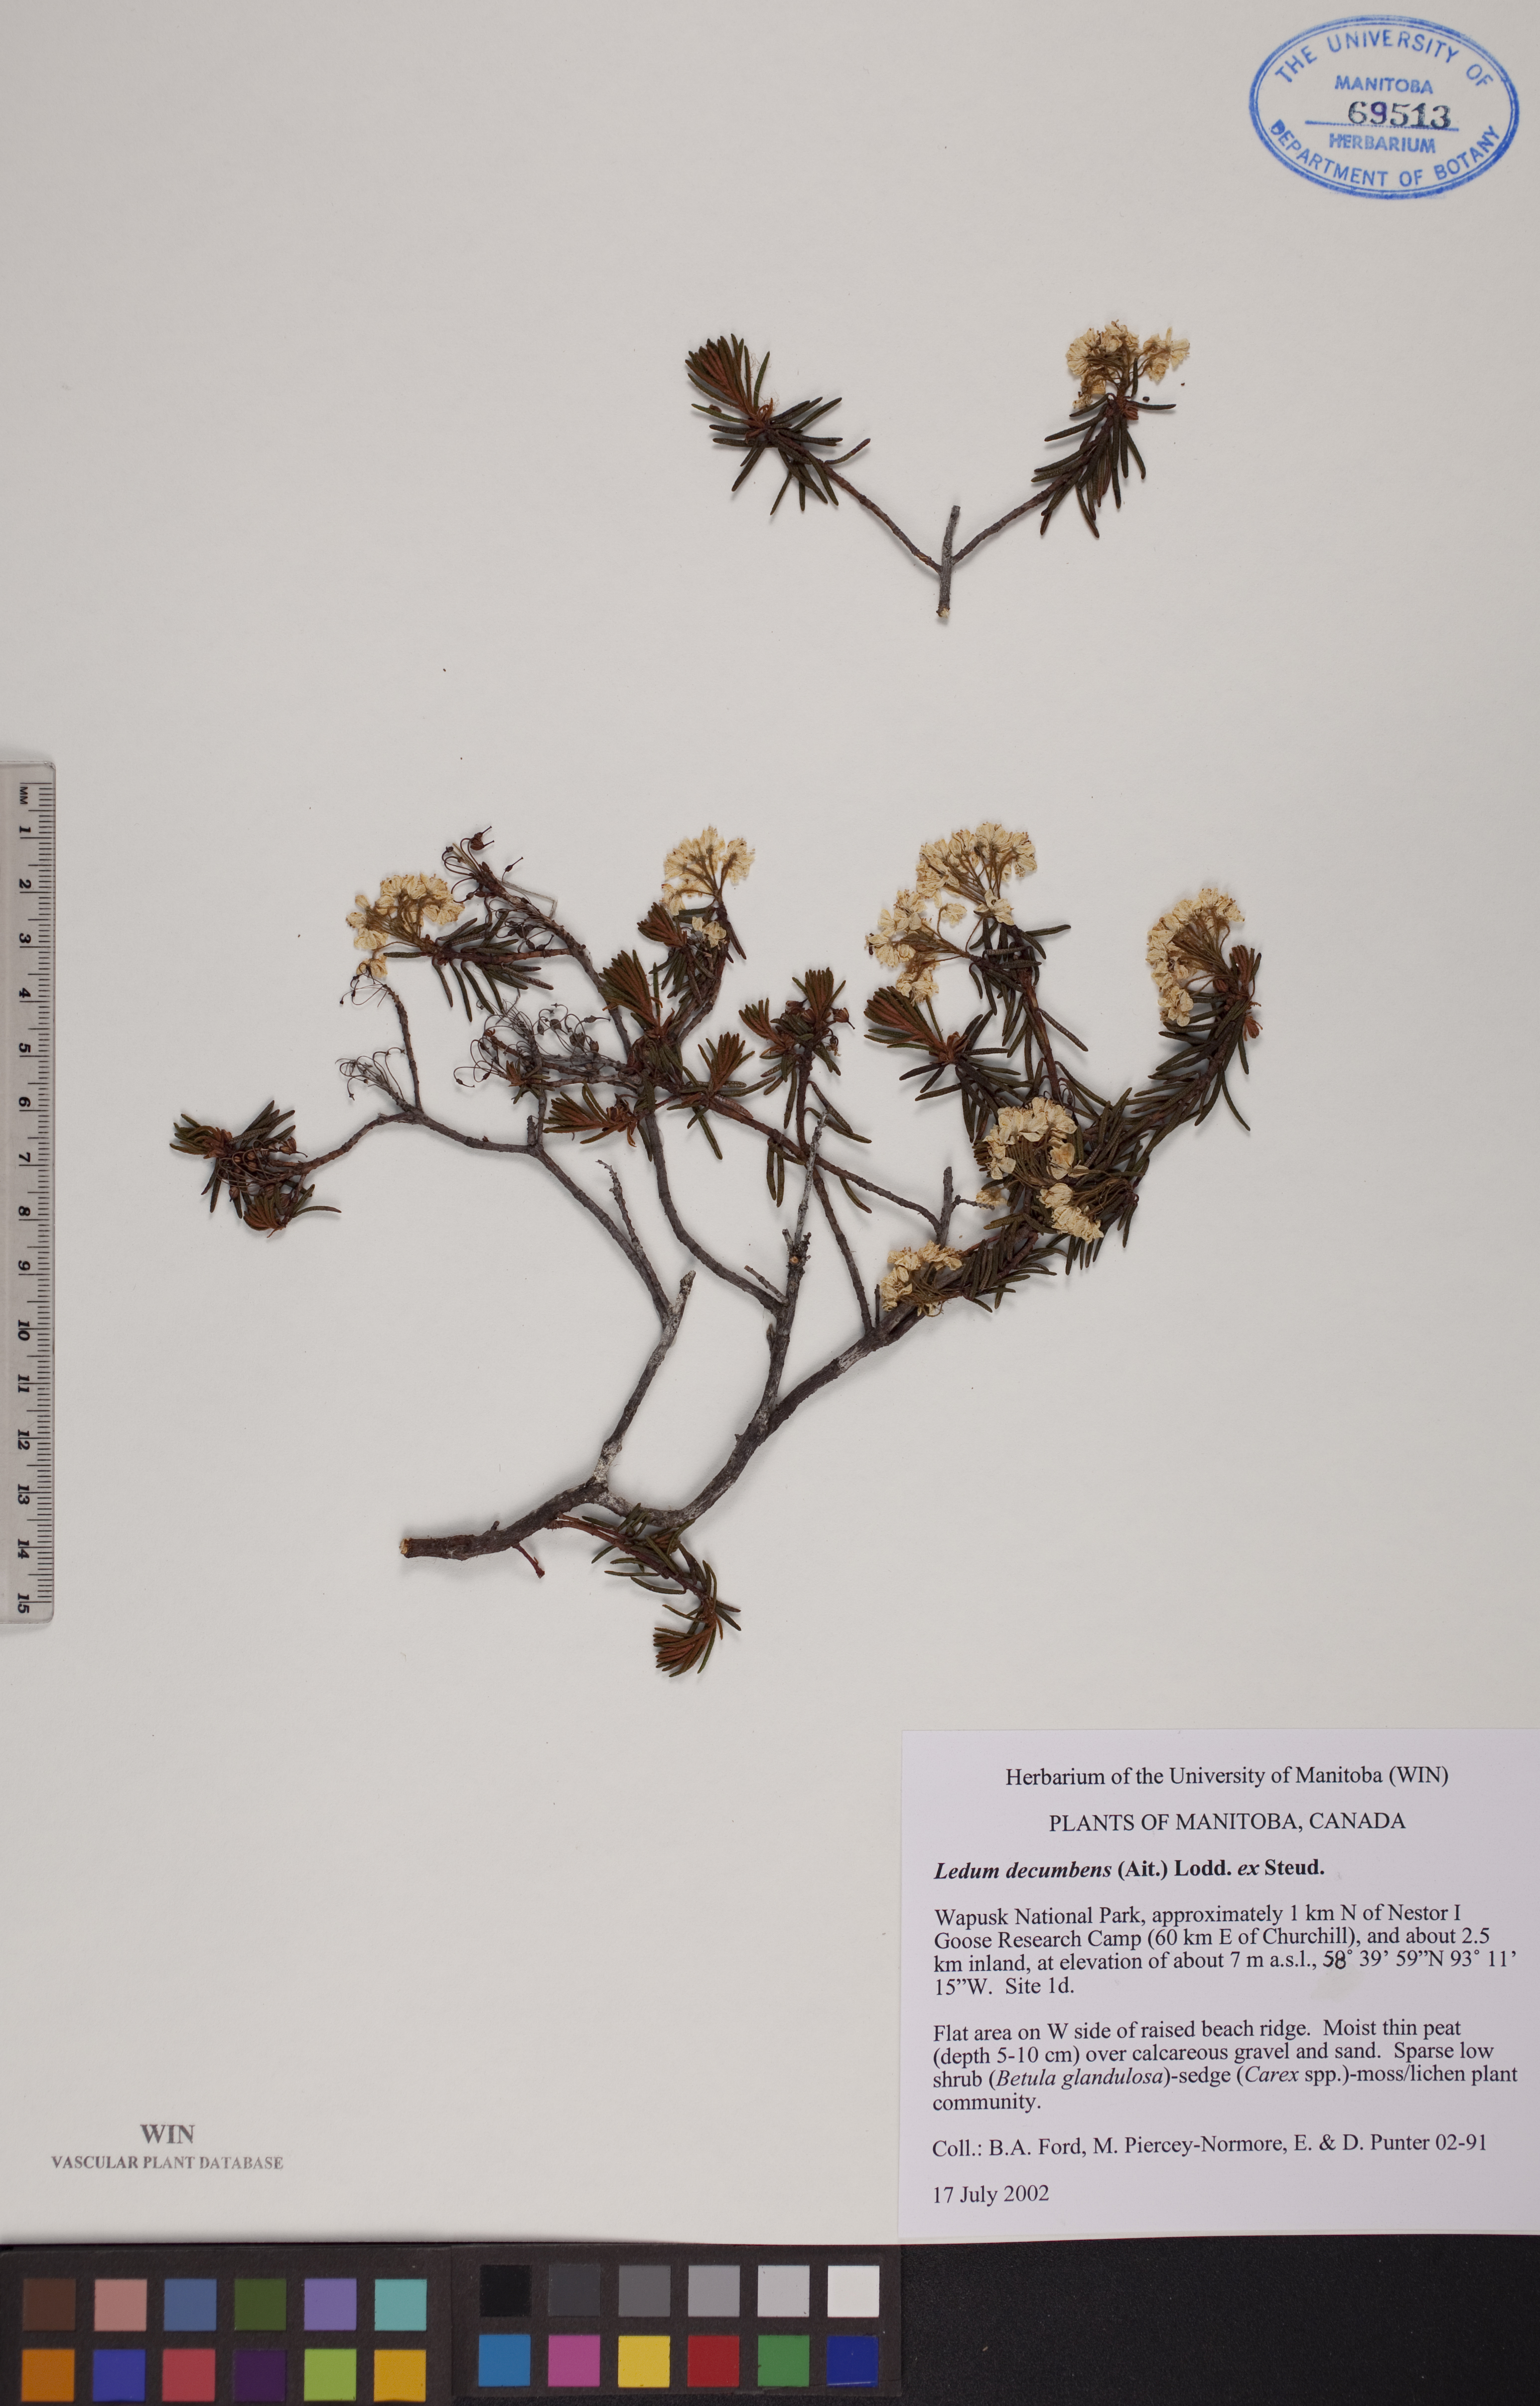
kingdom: Plantae
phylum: Tracheophyta
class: Magnoliopsida
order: Ericales
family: Ericaceae
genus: Rhododendron
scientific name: Rhododendron tomentosum
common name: Marsh labrador tea
